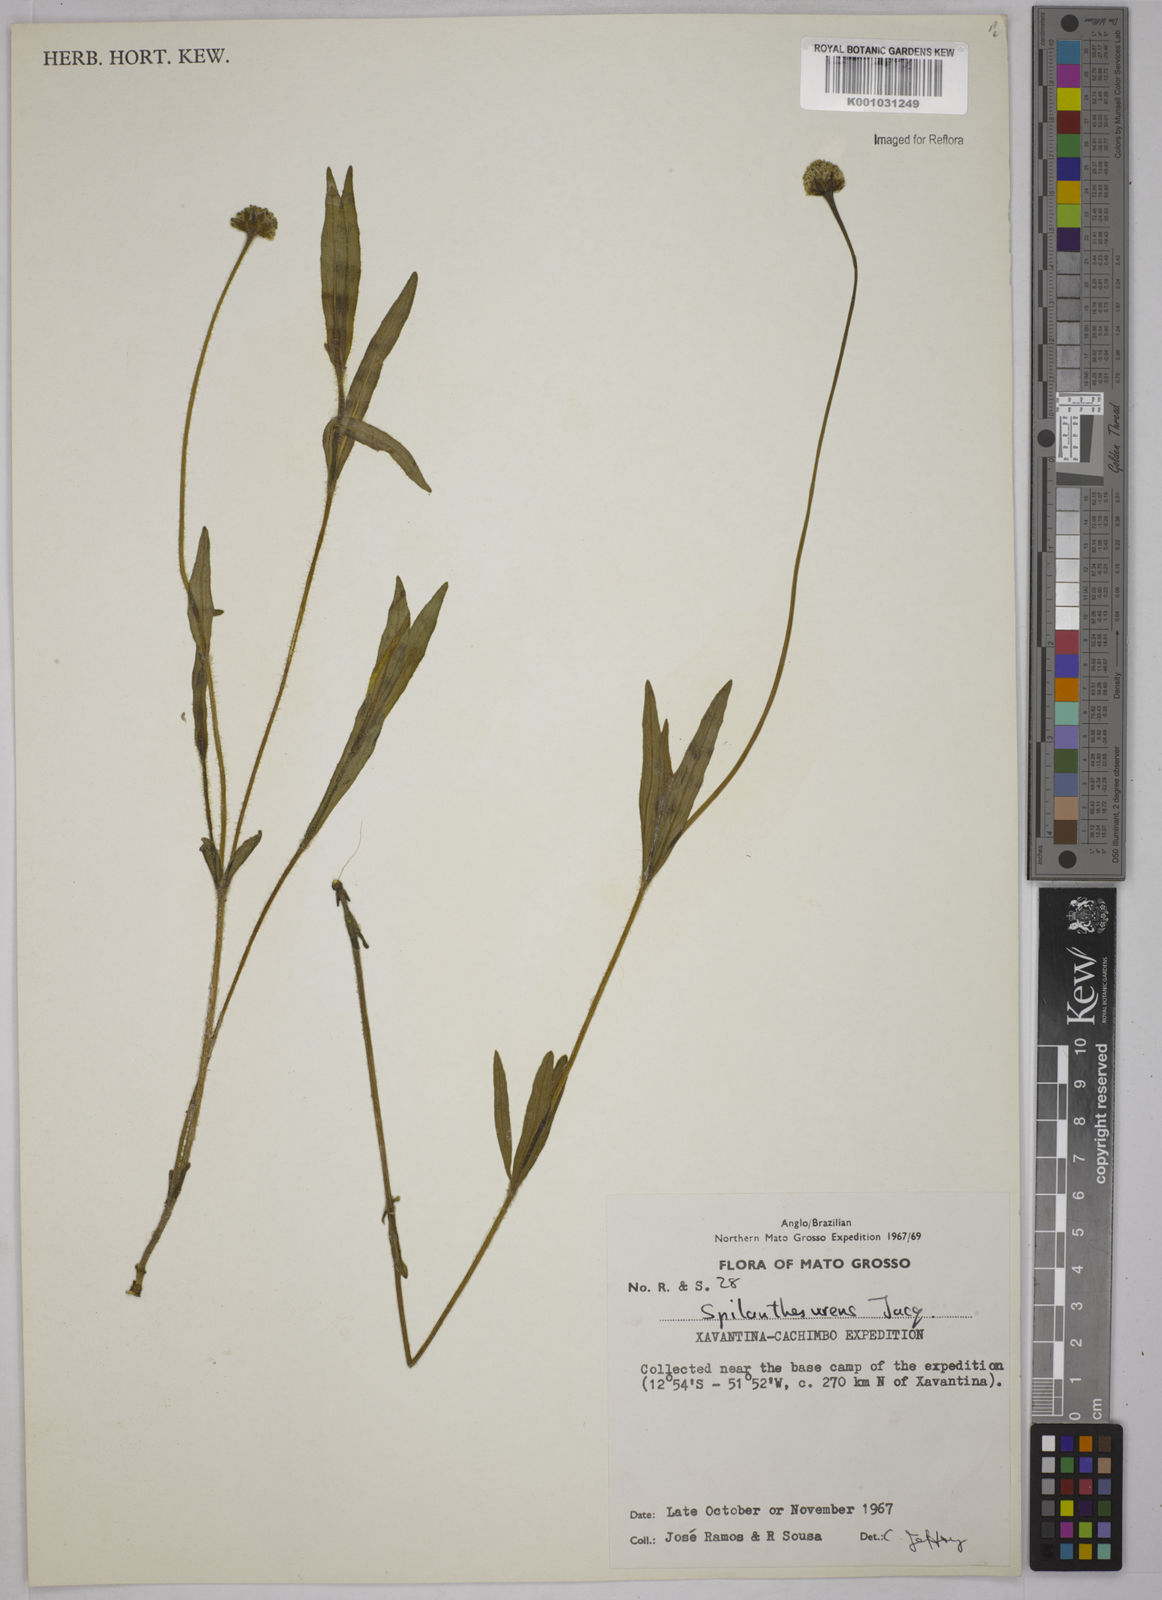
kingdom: Plantae
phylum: Tracheophyta
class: Magnoliopsida
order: Asterales
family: Asteraceae
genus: Spilanthes
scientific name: Spilanthes urens
